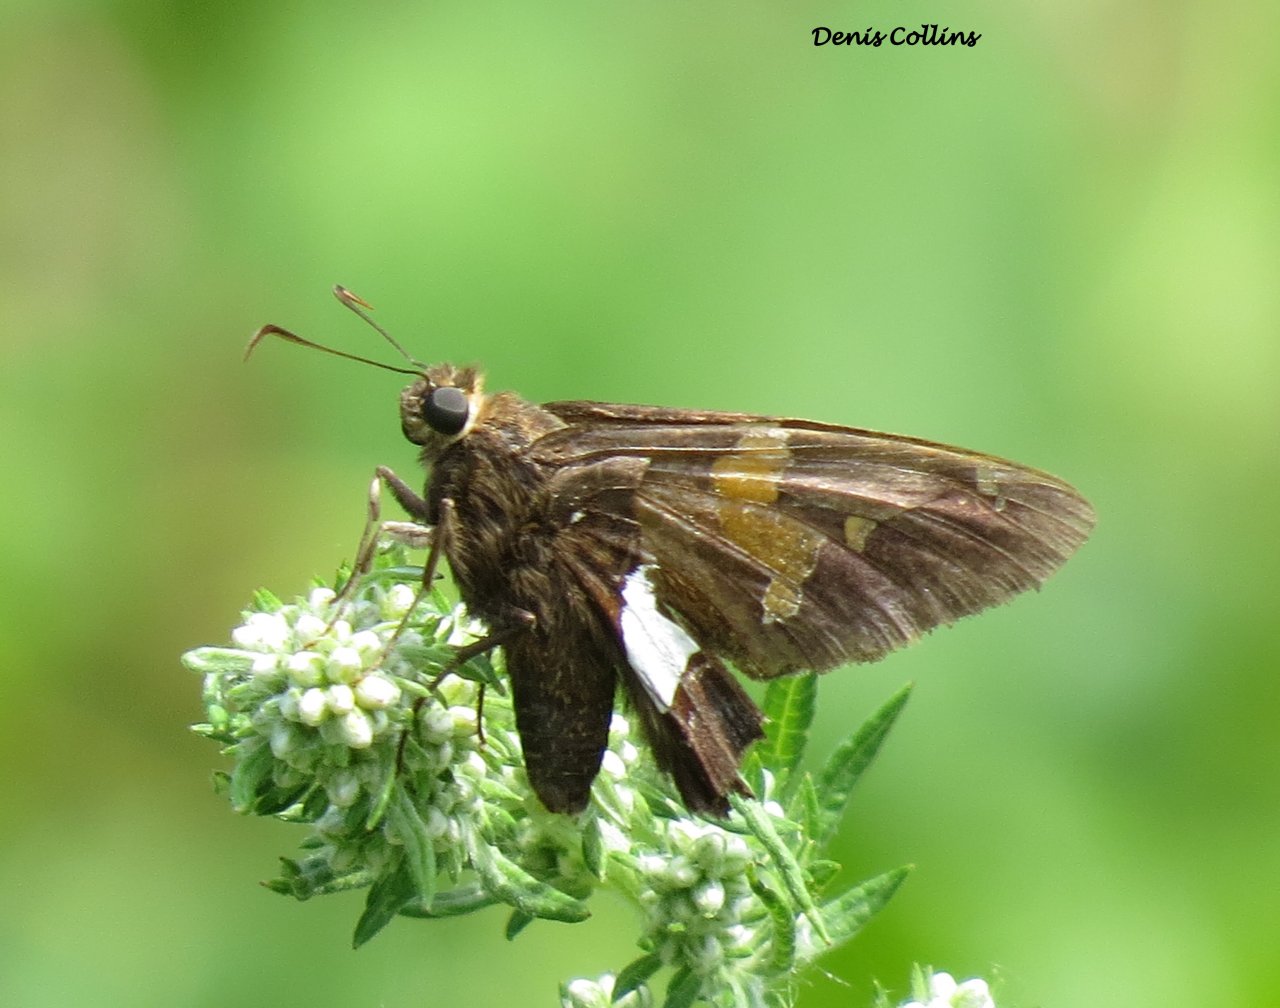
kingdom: Animalia
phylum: Arthropoda
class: Insecta
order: Lepidoptera
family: Hesperiidae
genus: Epargyreus
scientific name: Epargyreus clarus
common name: Silver-spotted Skipper
